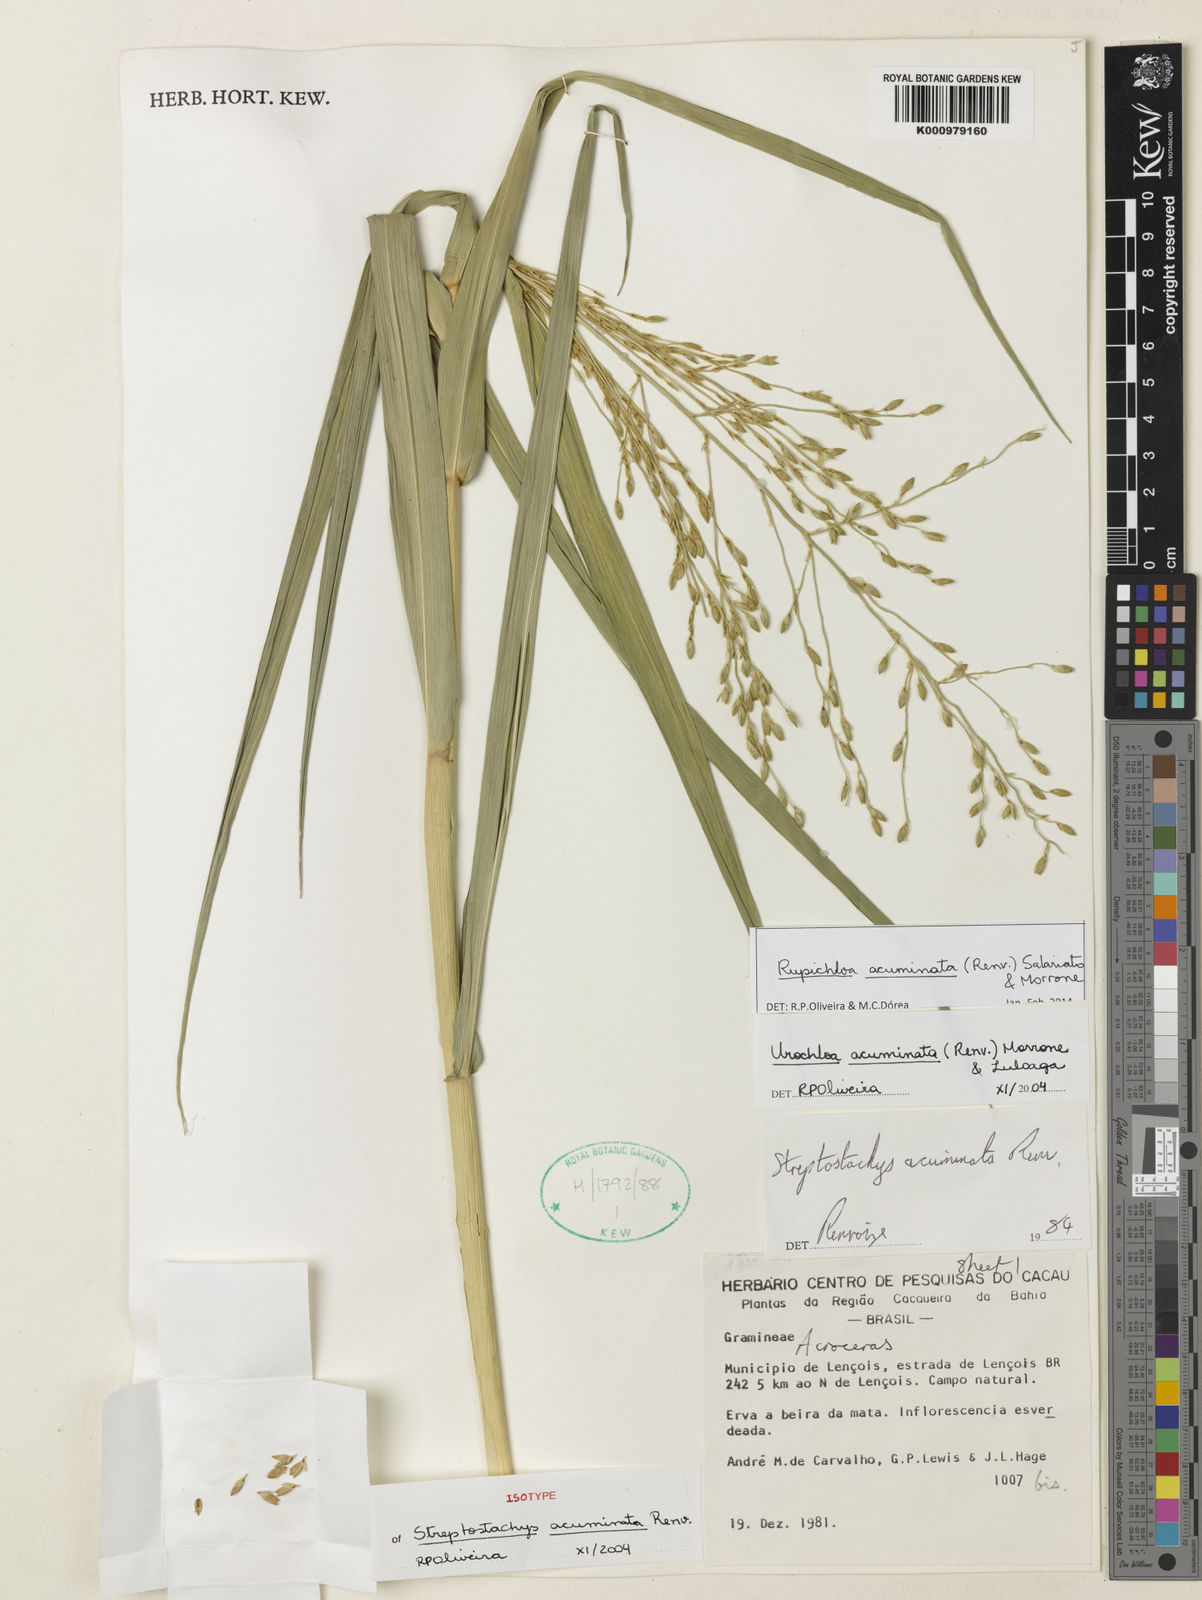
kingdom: Plantae
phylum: Tracheophyta
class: Liliopsida
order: Poales
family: Poaceae
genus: Rupichloa
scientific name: Rupichloa acuminata
